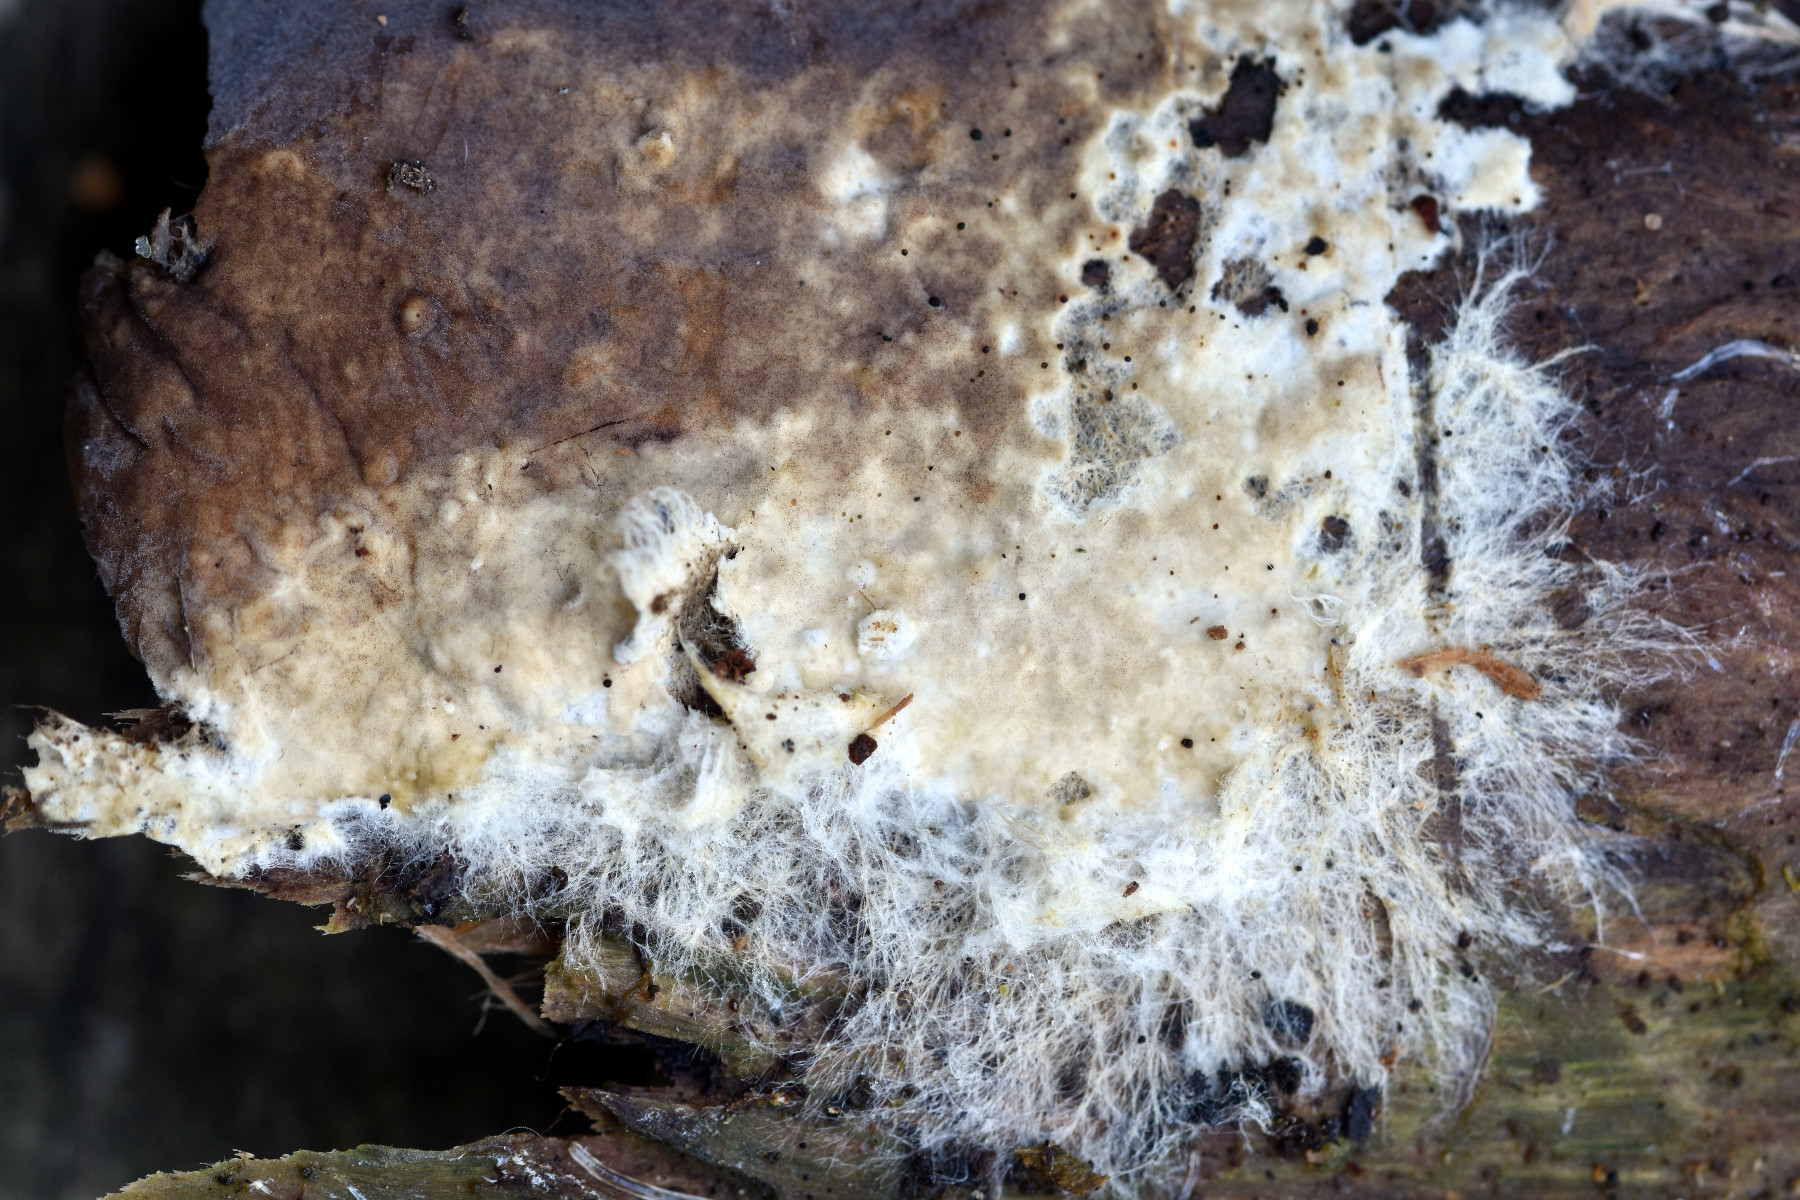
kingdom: Fungi
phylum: Basidiomycota
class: Agaricomycetes
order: Boletales
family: Coniophoraceae
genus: Coniophora
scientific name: Coniophora fusispora
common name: tensporet tømmersvamp
